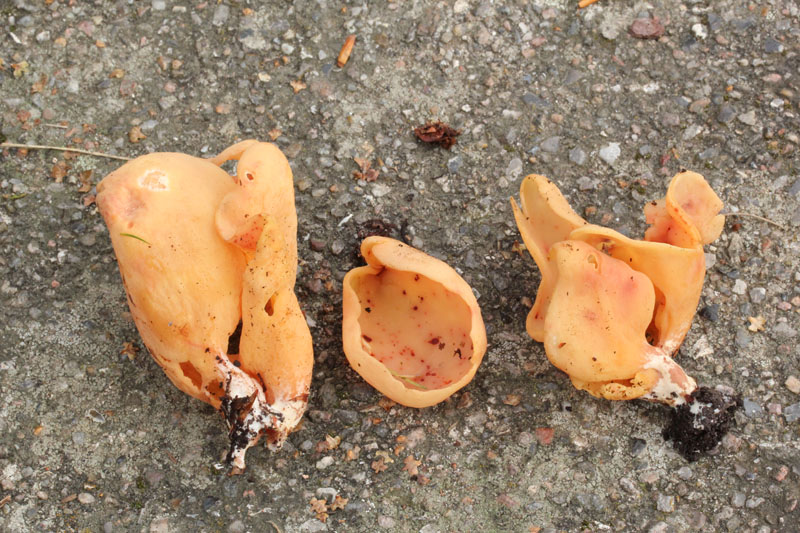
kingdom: Fungi
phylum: Ascomycota
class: Pezizomycetes
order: Pezizales
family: Otideaceae
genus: Otidea
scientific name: Otidea onotica
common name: æsel-ørebæger
